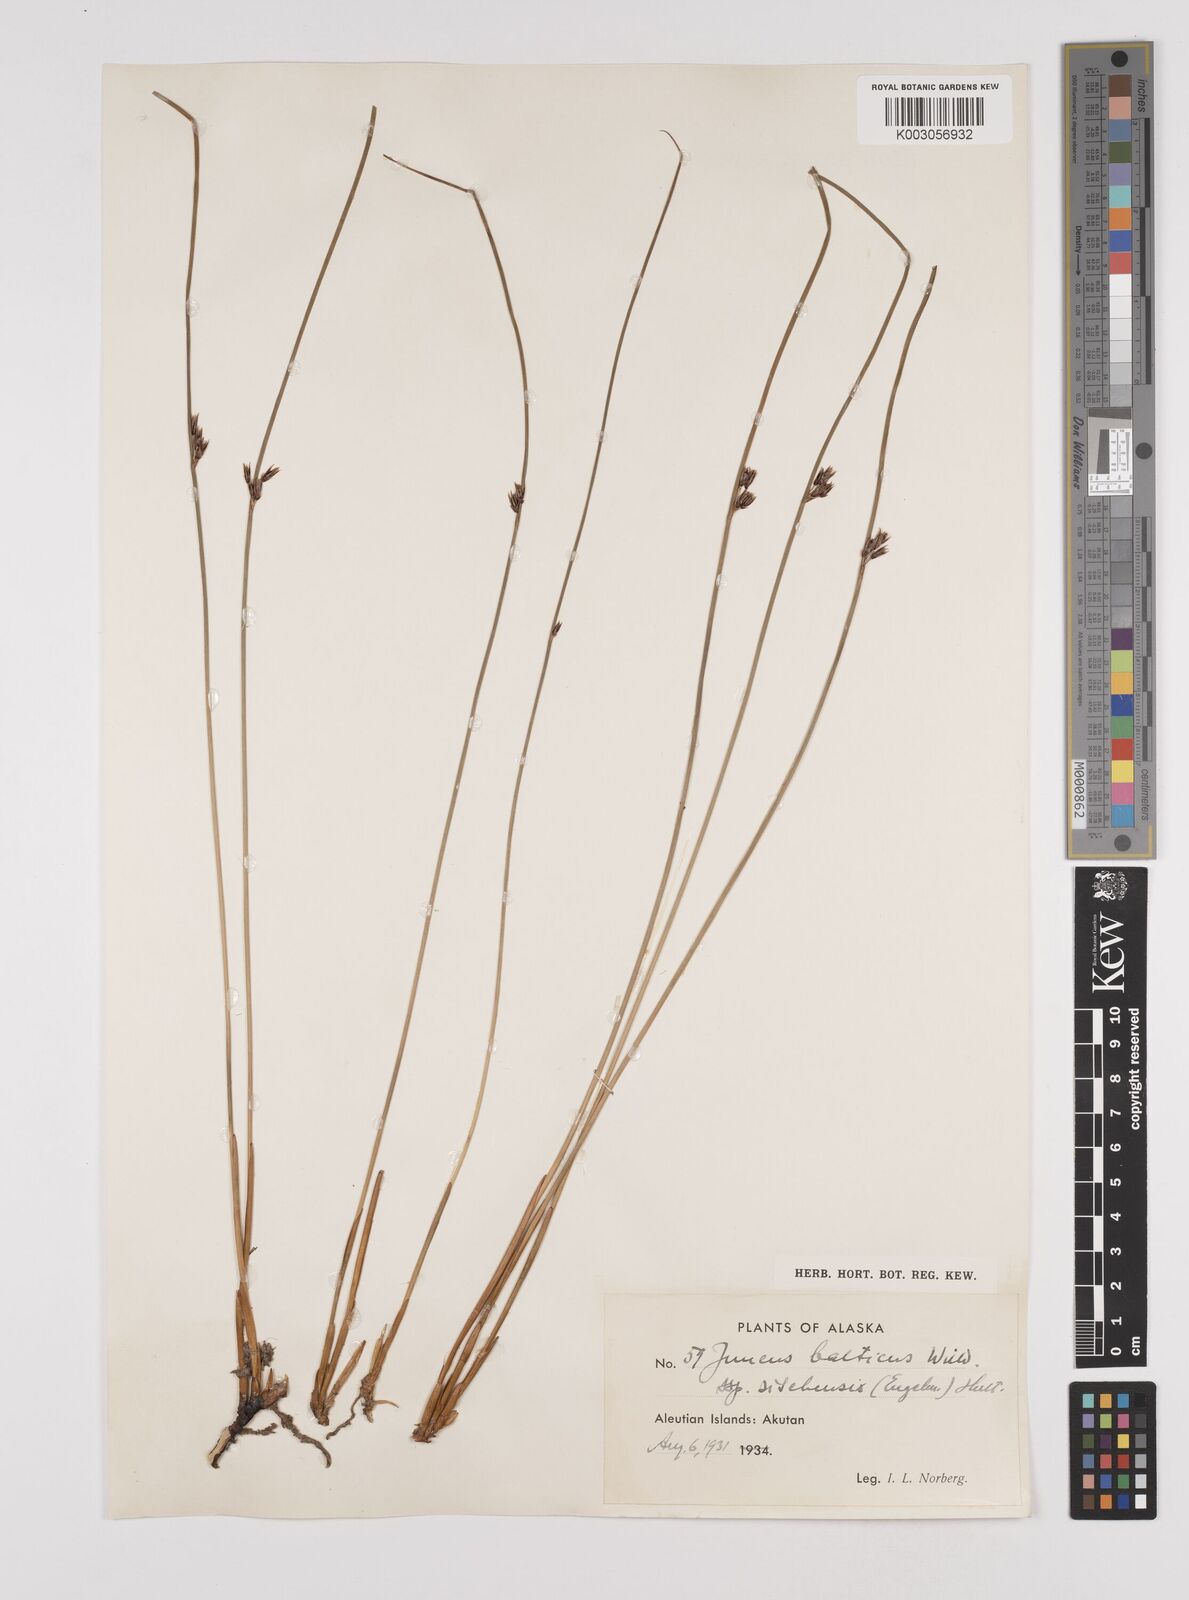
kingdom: Plantae
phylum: Tracheophyta
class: Liliopsida
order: Poales
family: Juncaceae
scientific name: Juncaceae
